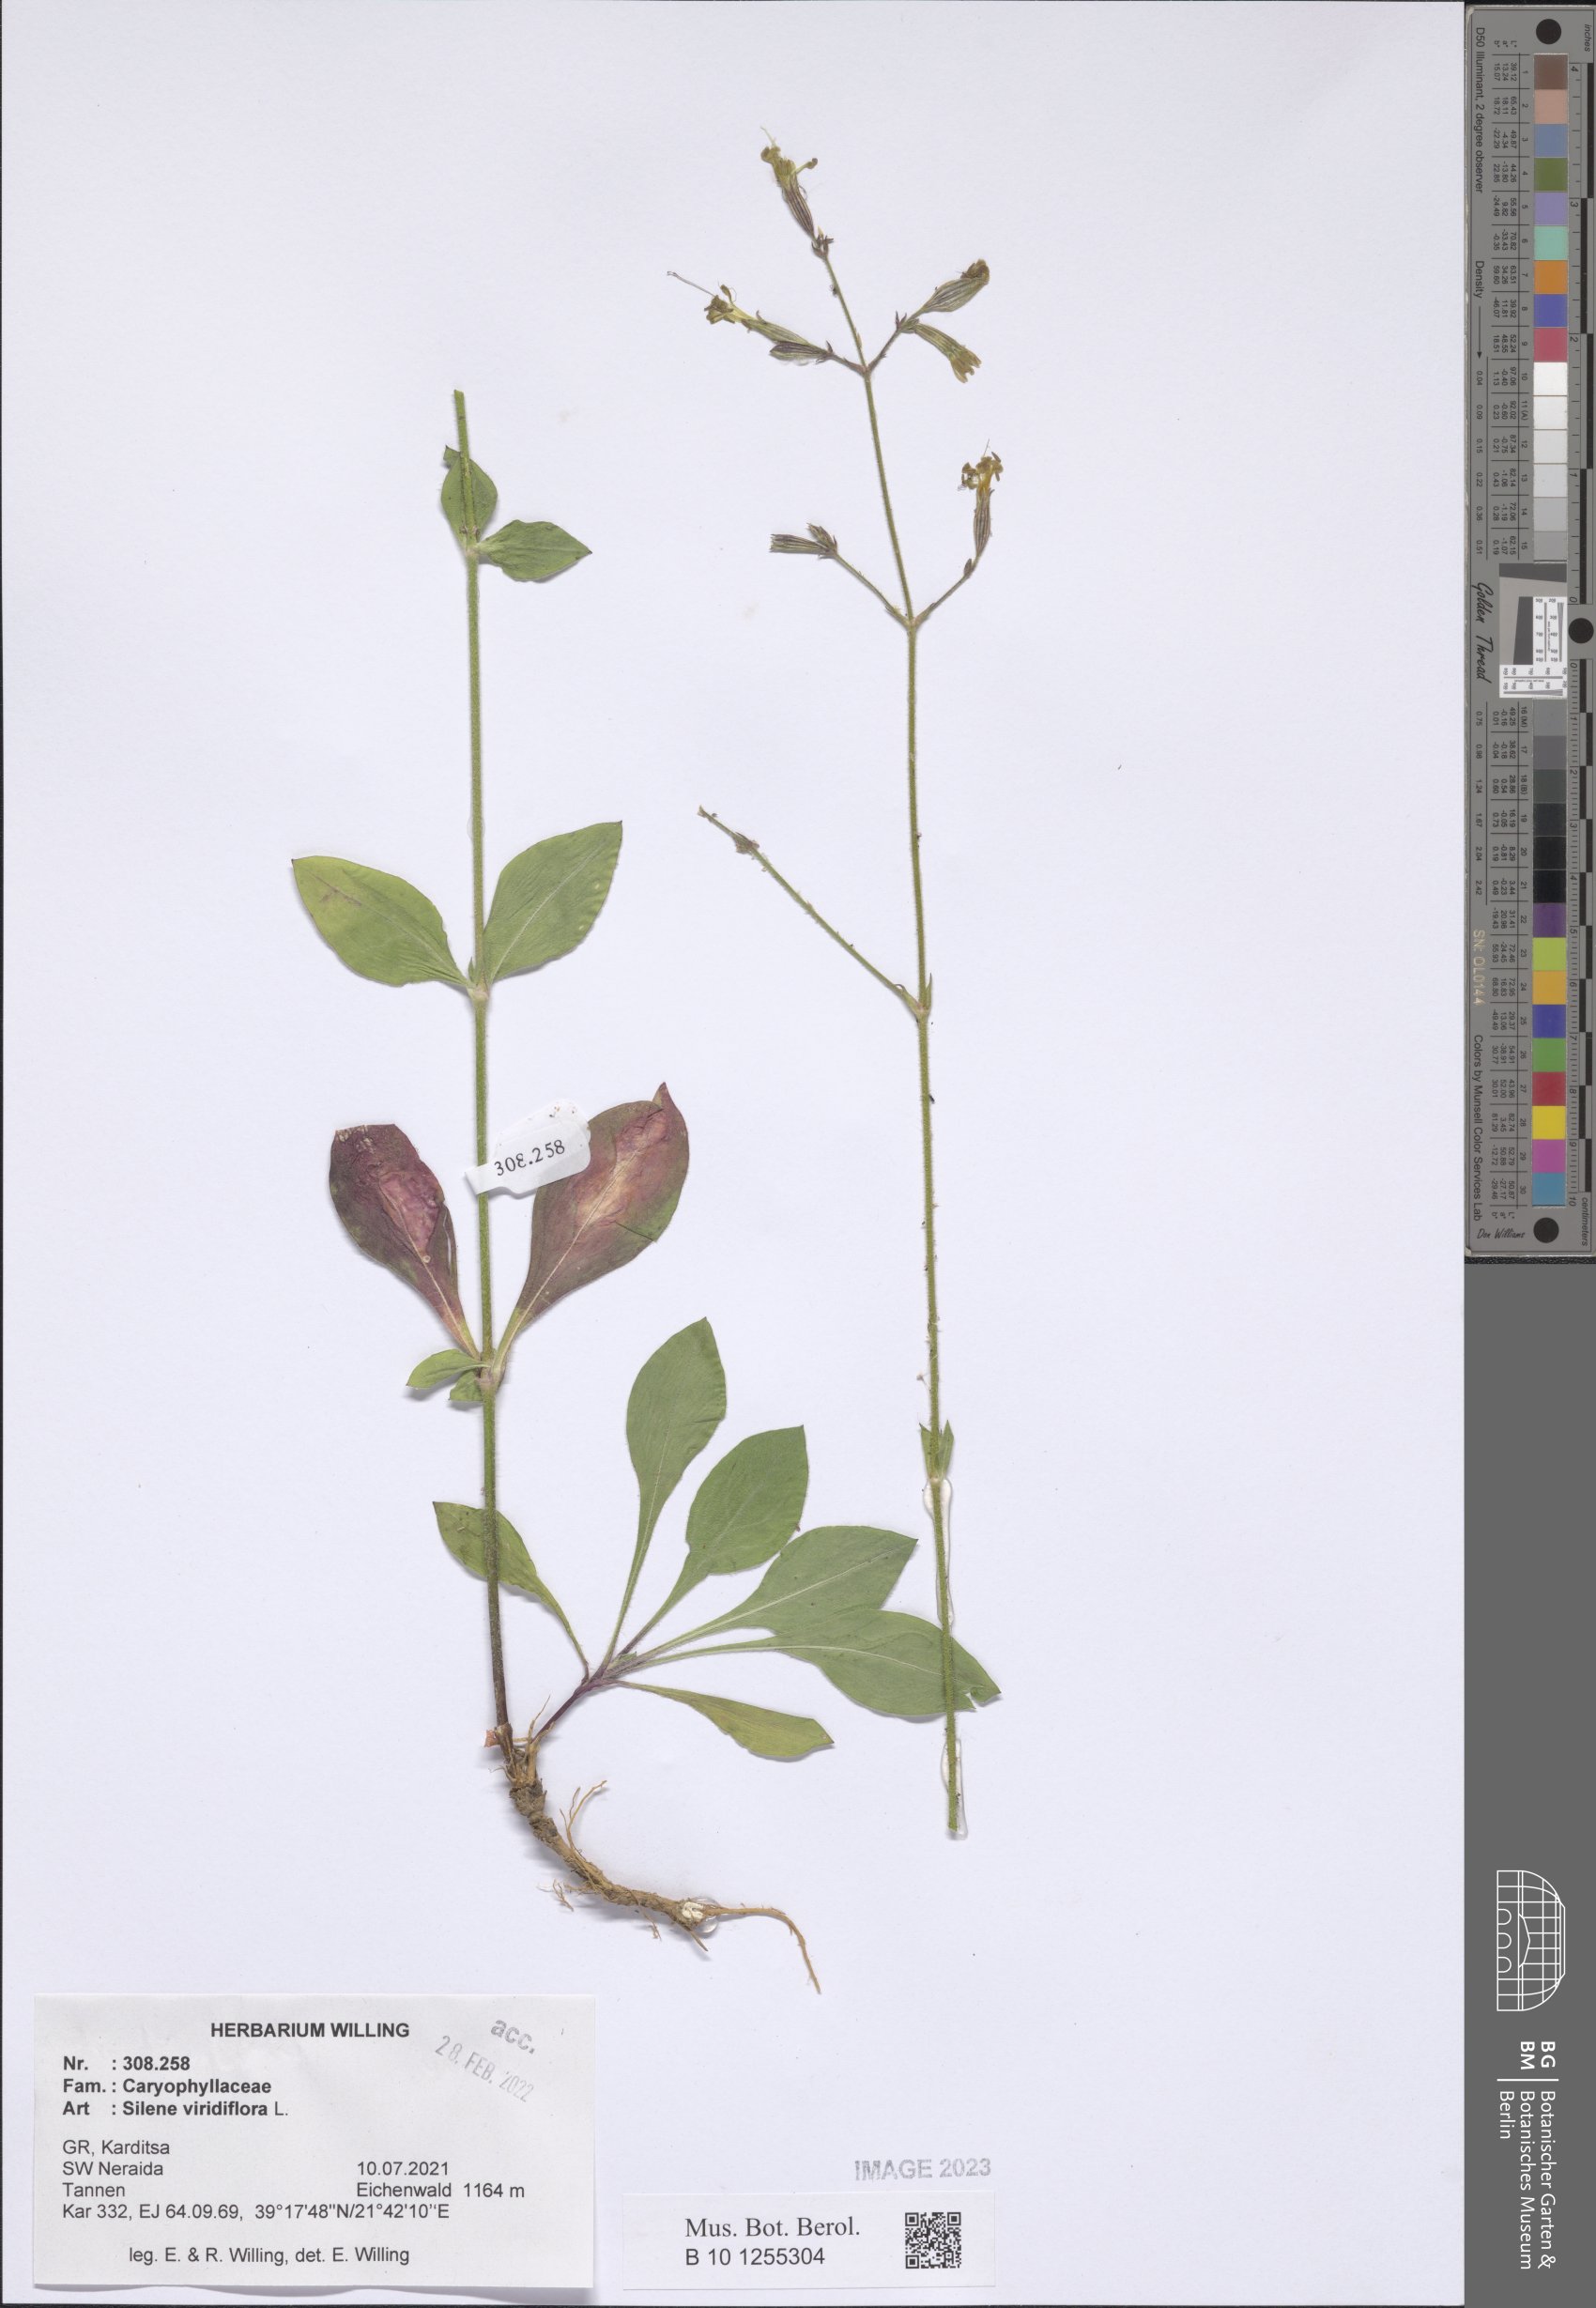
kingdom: Plantae
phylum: Tracheophyta
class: Magnoliopsida
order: Caryophyllales
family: Caryophyllaceae
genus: Silene
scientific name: Silene viridiflora
